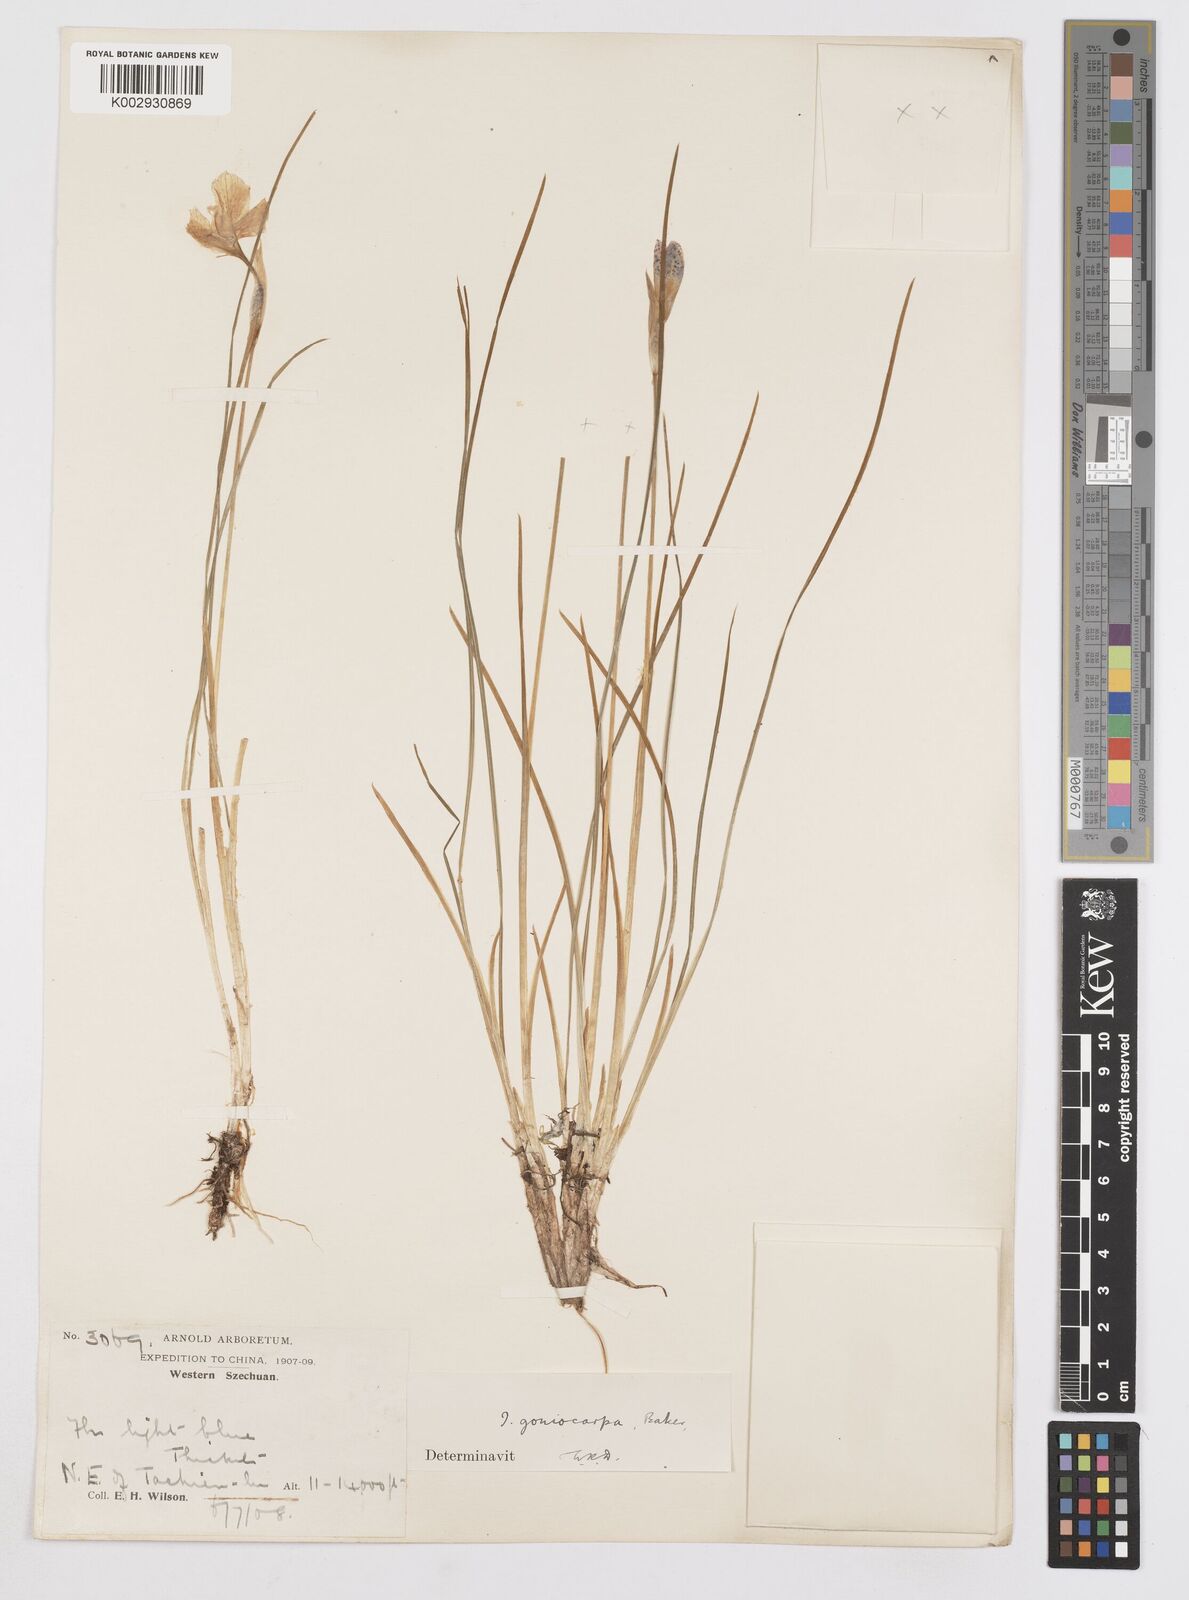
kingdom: Plantae
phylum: Tracheophyta
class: Liliopsida
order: Asparagales
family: Iridaceae
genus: Iris
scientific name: Iris goniocarpa
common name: Angular-fruit iris
